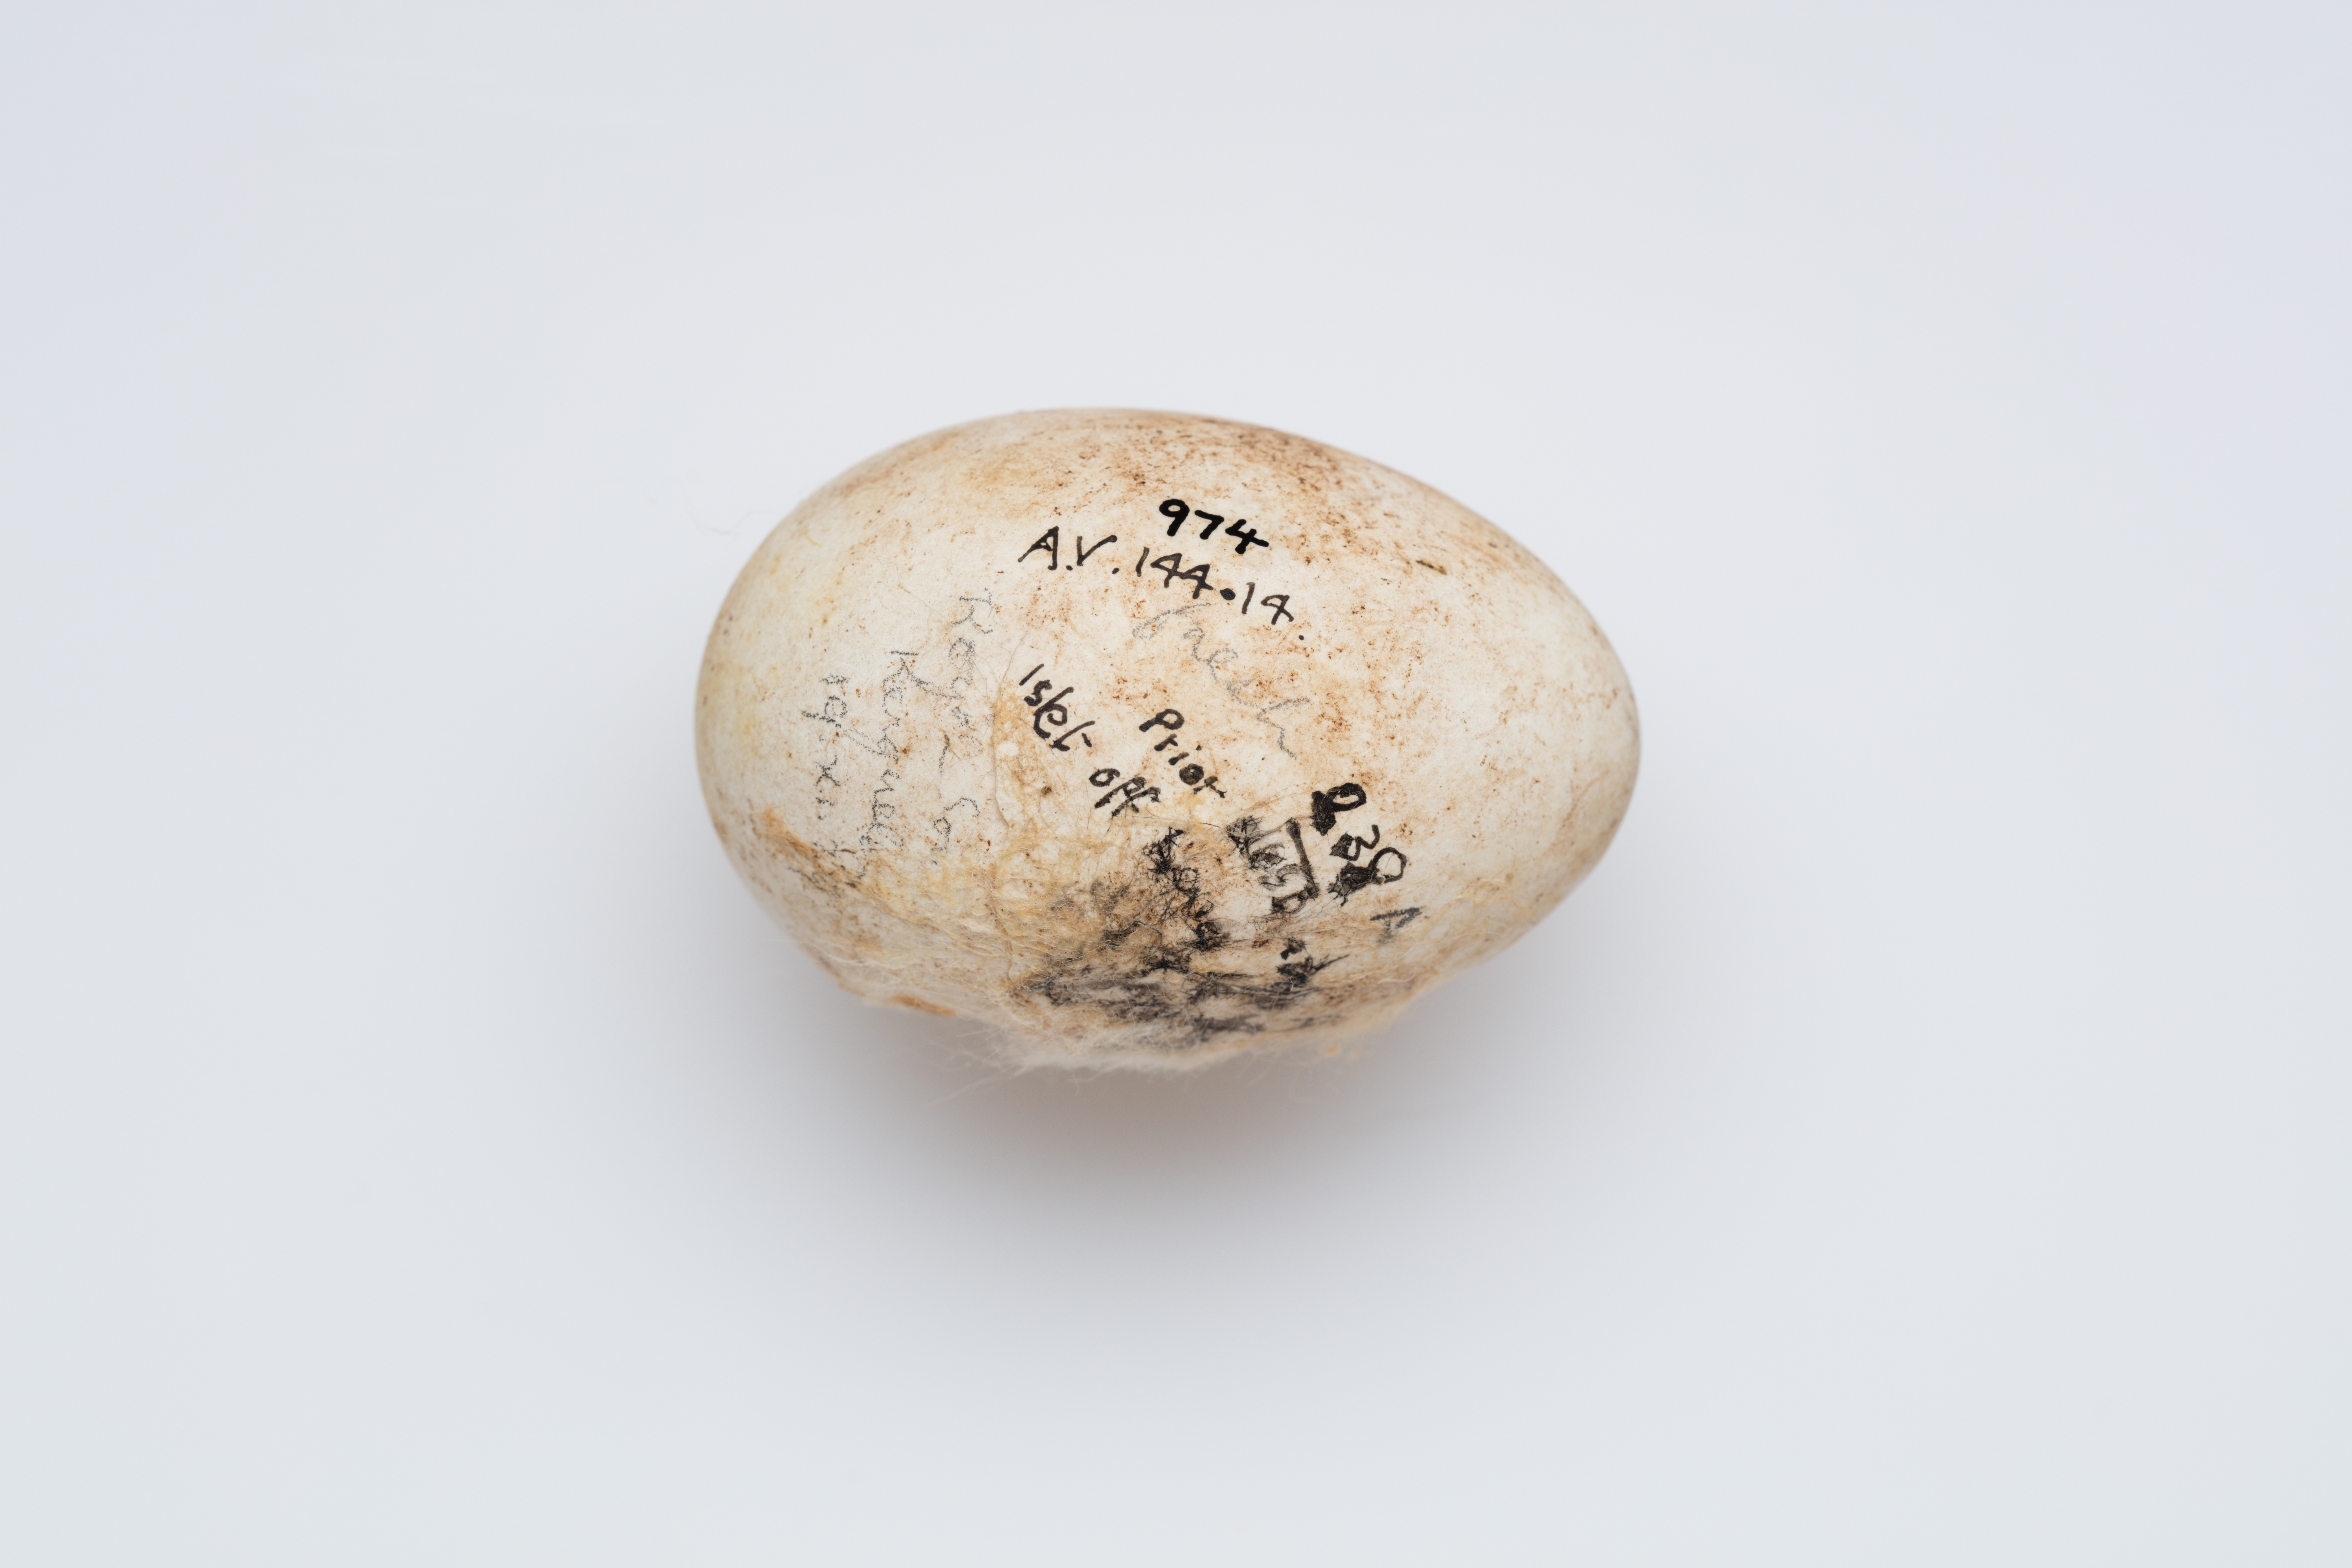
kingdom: Animalia
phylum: Chordata
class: Aves
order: Procellariiformes
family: Procellariidae
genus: Pachyptila
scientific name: Pachyptila desolata
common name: Antarctic prion
